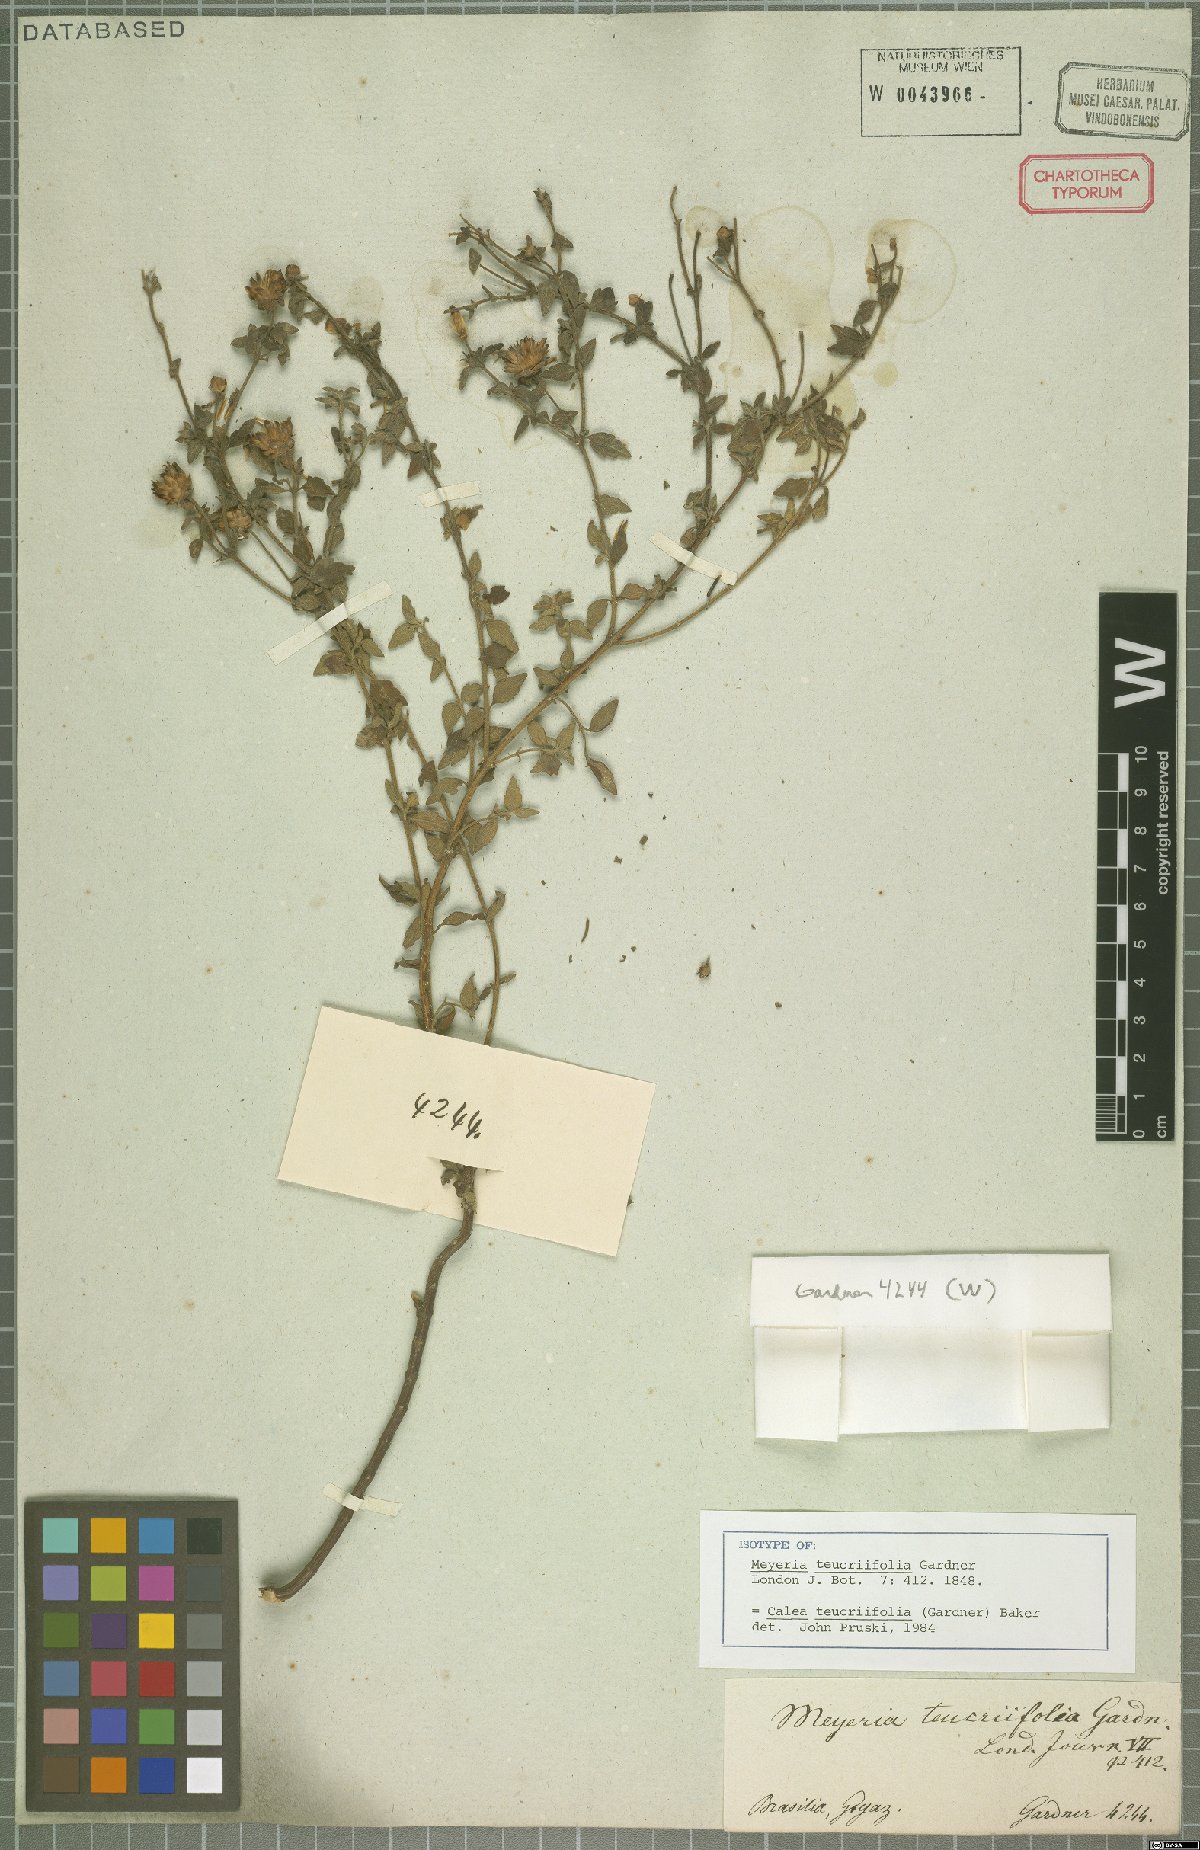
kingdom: Plantae
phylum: Tracheophyta
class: Magnoliopsida
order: Asterales
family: Asteraceae
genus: Calea
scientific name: Calea teucriifolia
